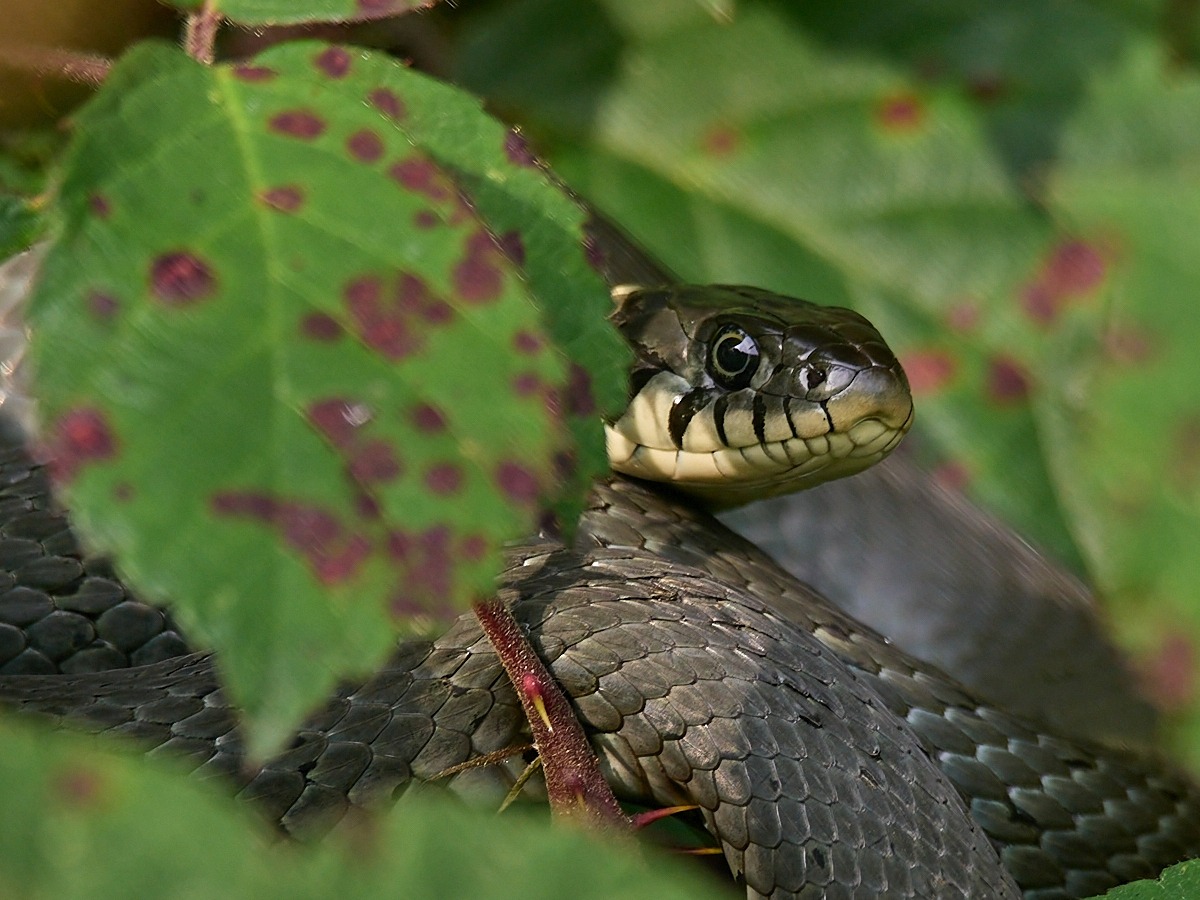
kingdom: Animalia
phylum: Chordata
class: Squamata
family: Colubridae
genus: Natrix
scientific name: Natrix natrix
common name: Snog
